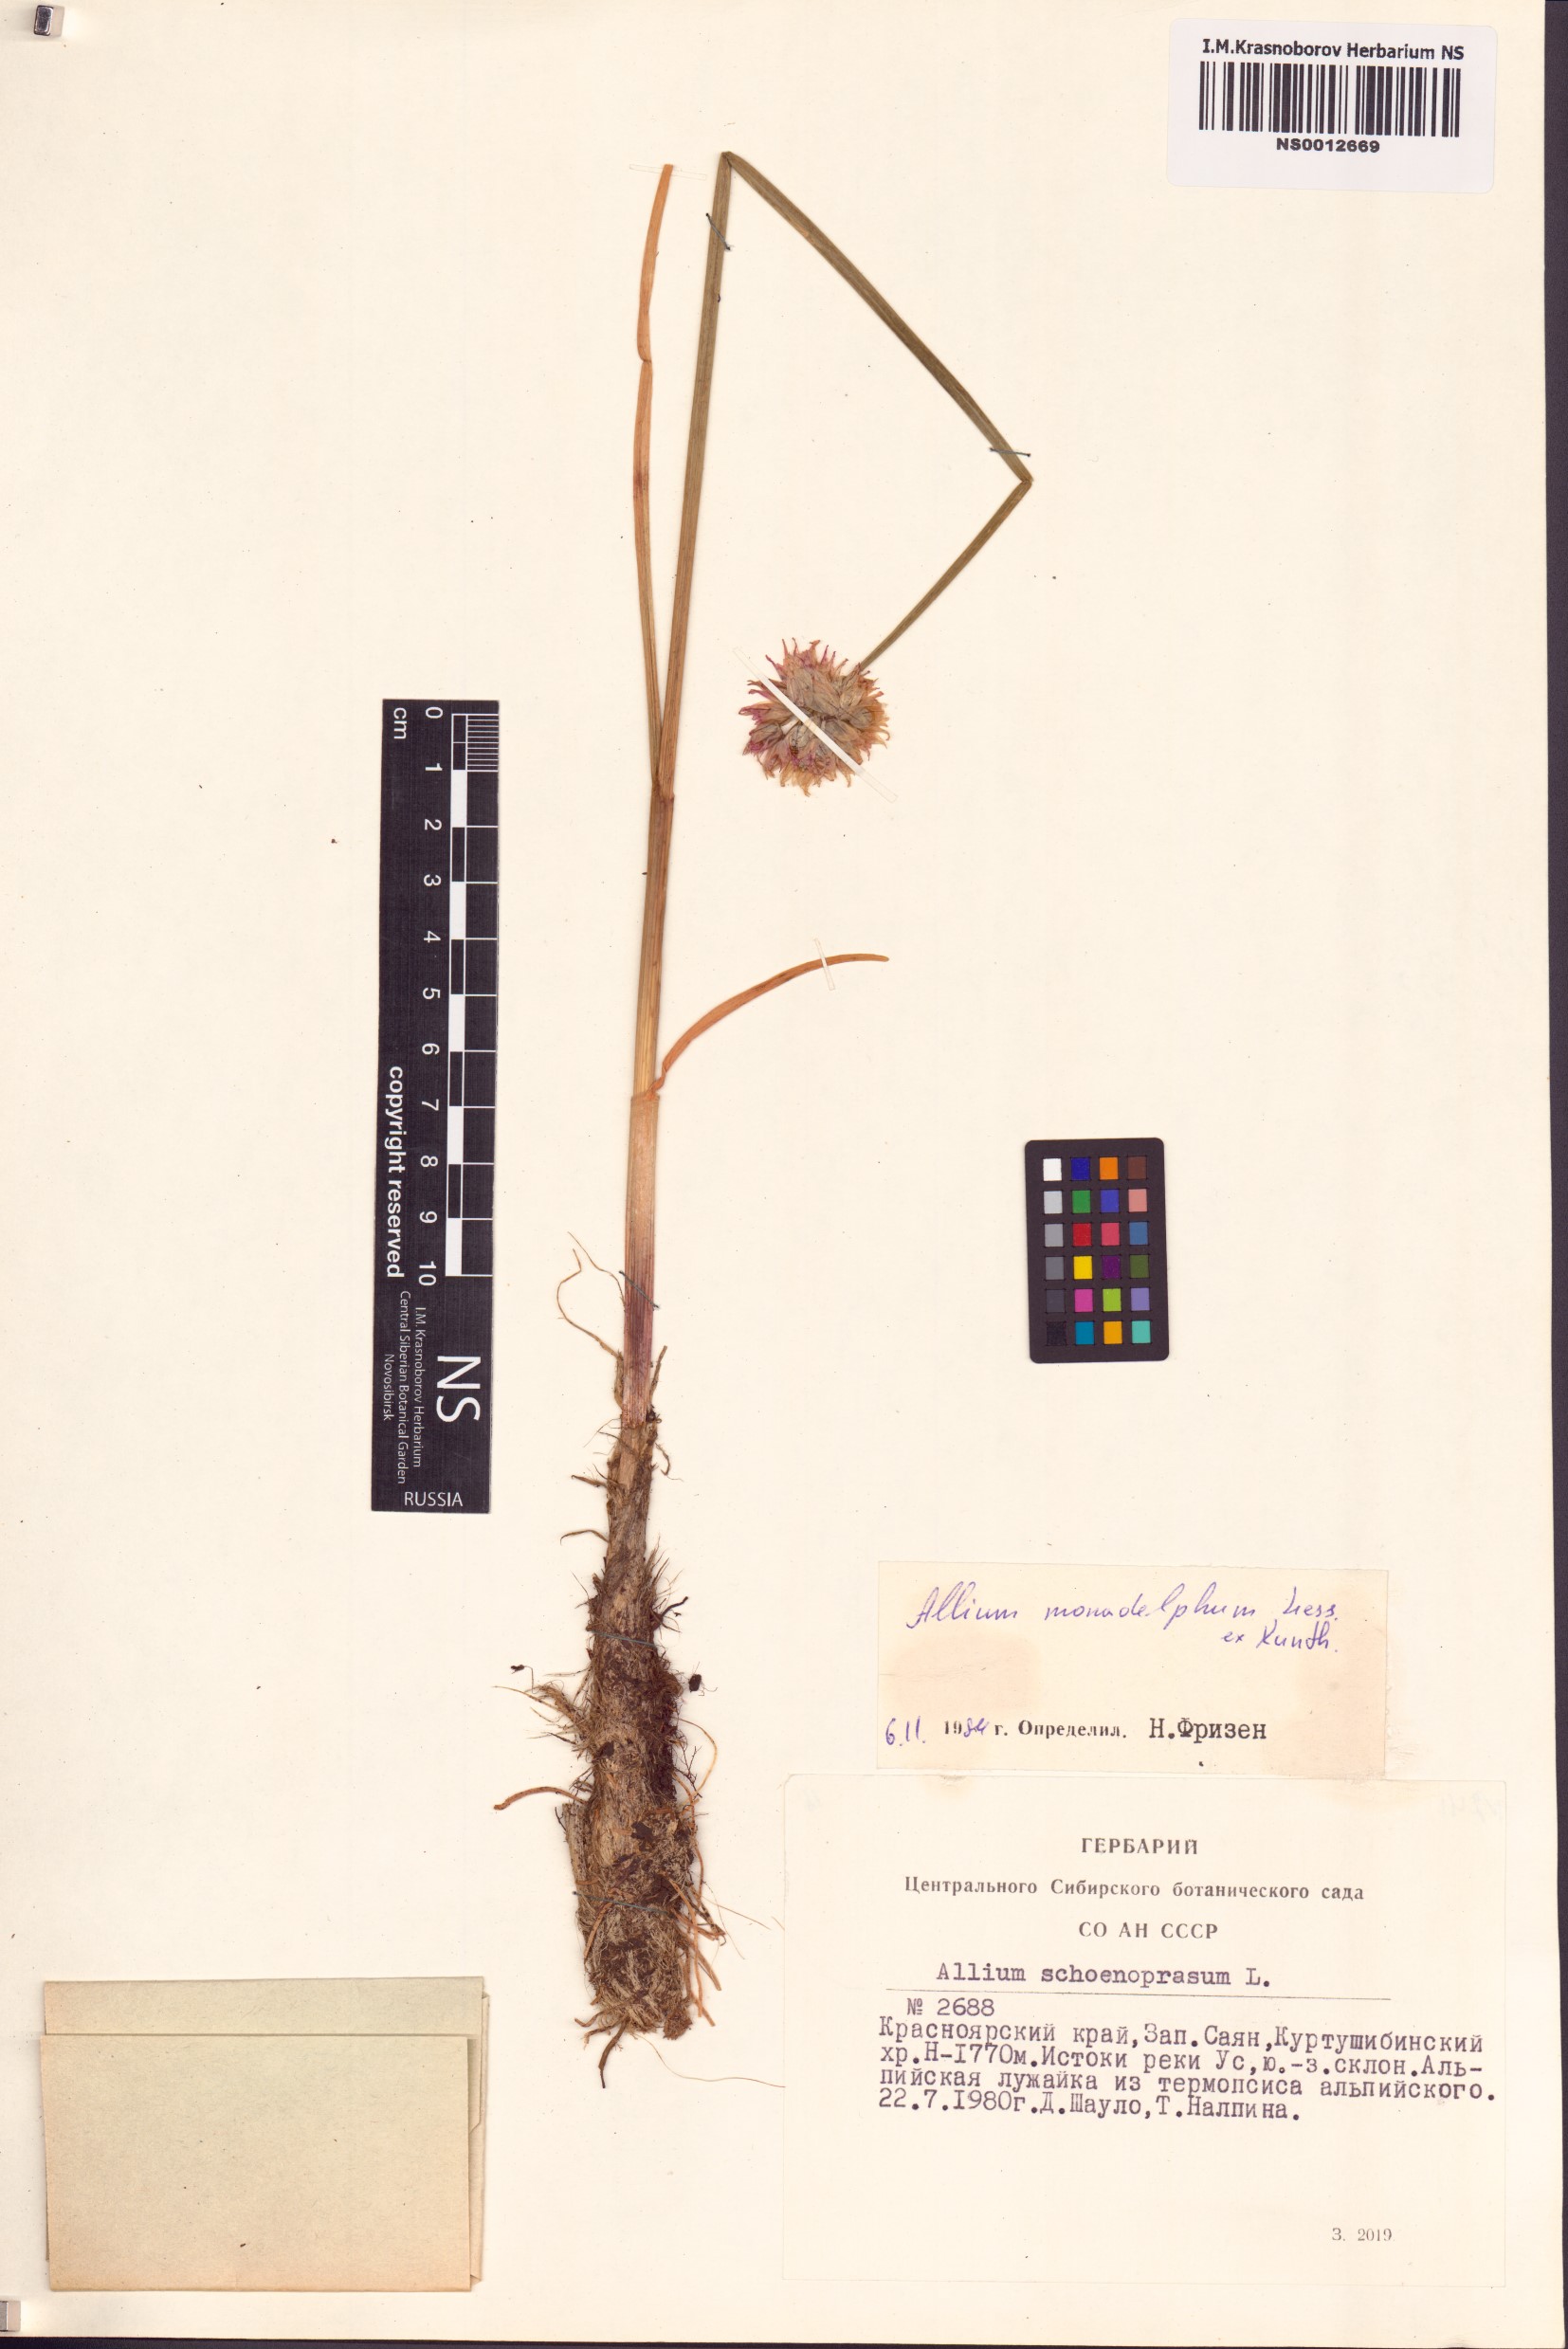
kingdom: Plantae
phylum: Tracheophyta
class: Liliopsida
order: Asparagales
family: Amaryllidaceae
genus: Allium
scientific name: Allium atrosanguineum
